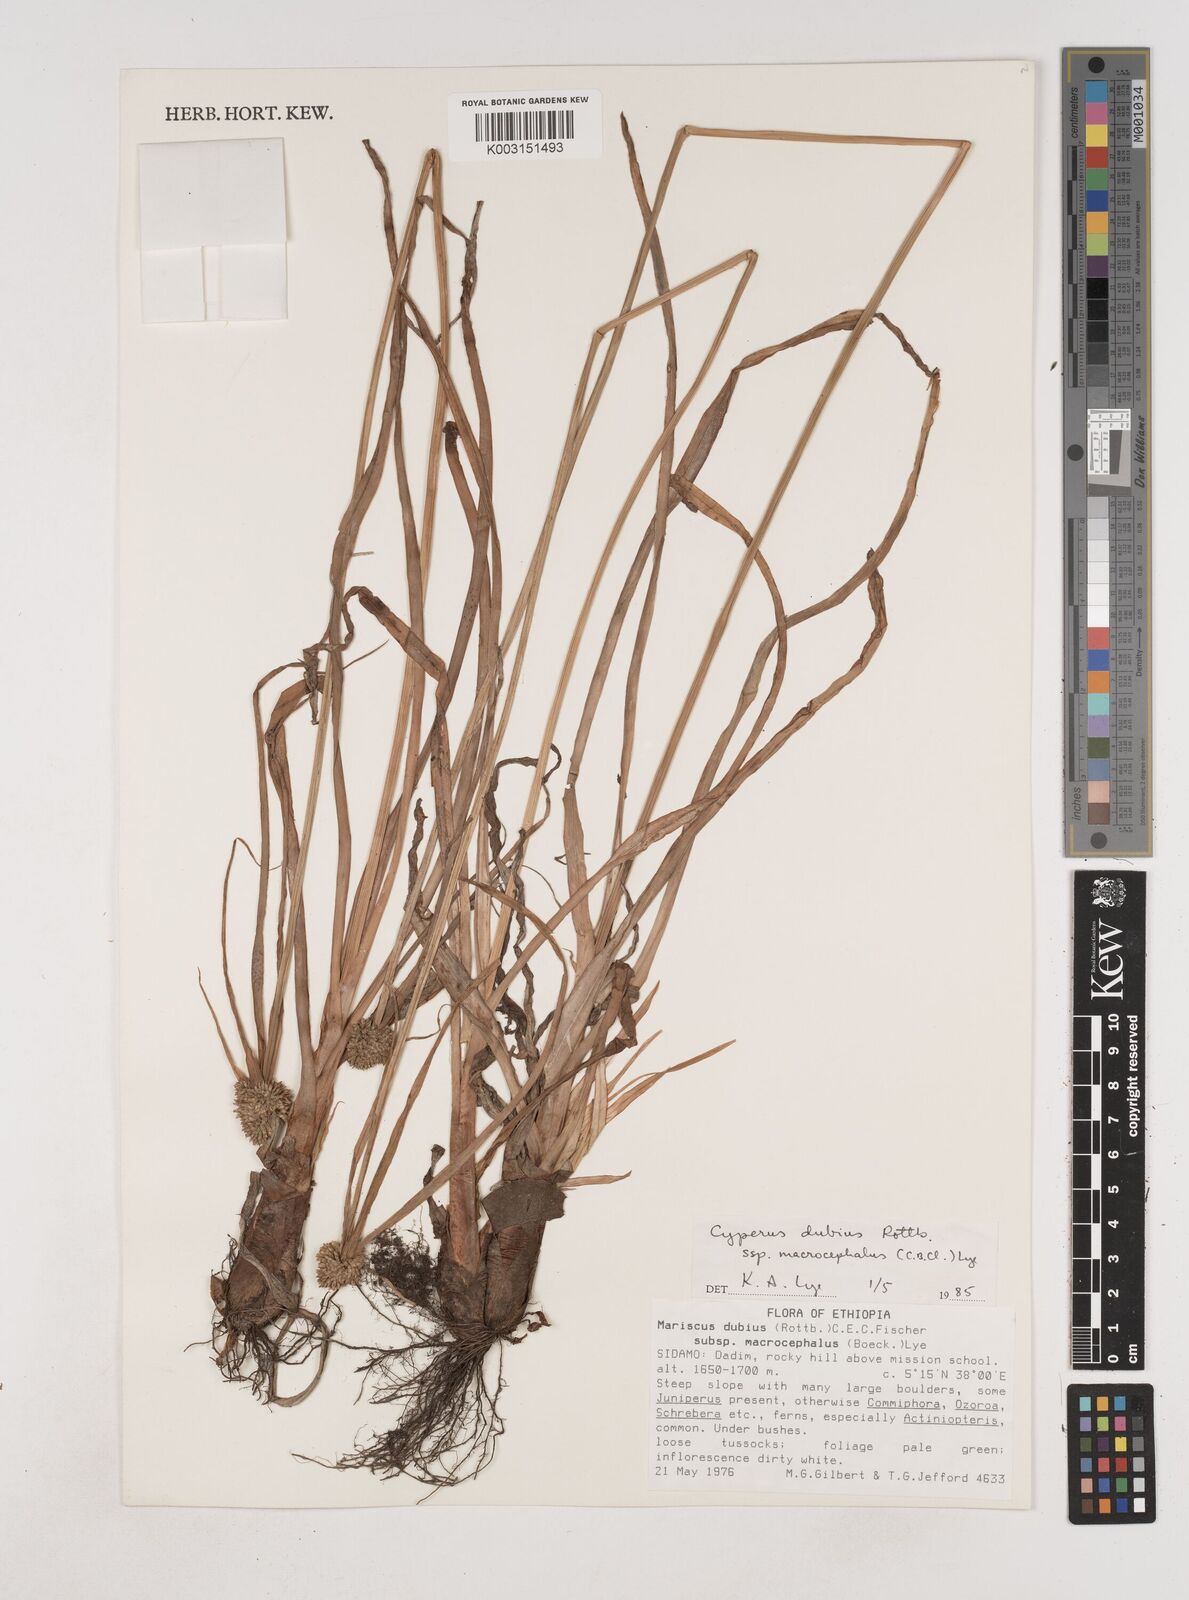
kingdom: Plantae
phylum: Tracheophyta
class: Liliopsida
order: Poales
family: Cyperaceae
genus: Cyperus
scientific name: Cyperus dubius
